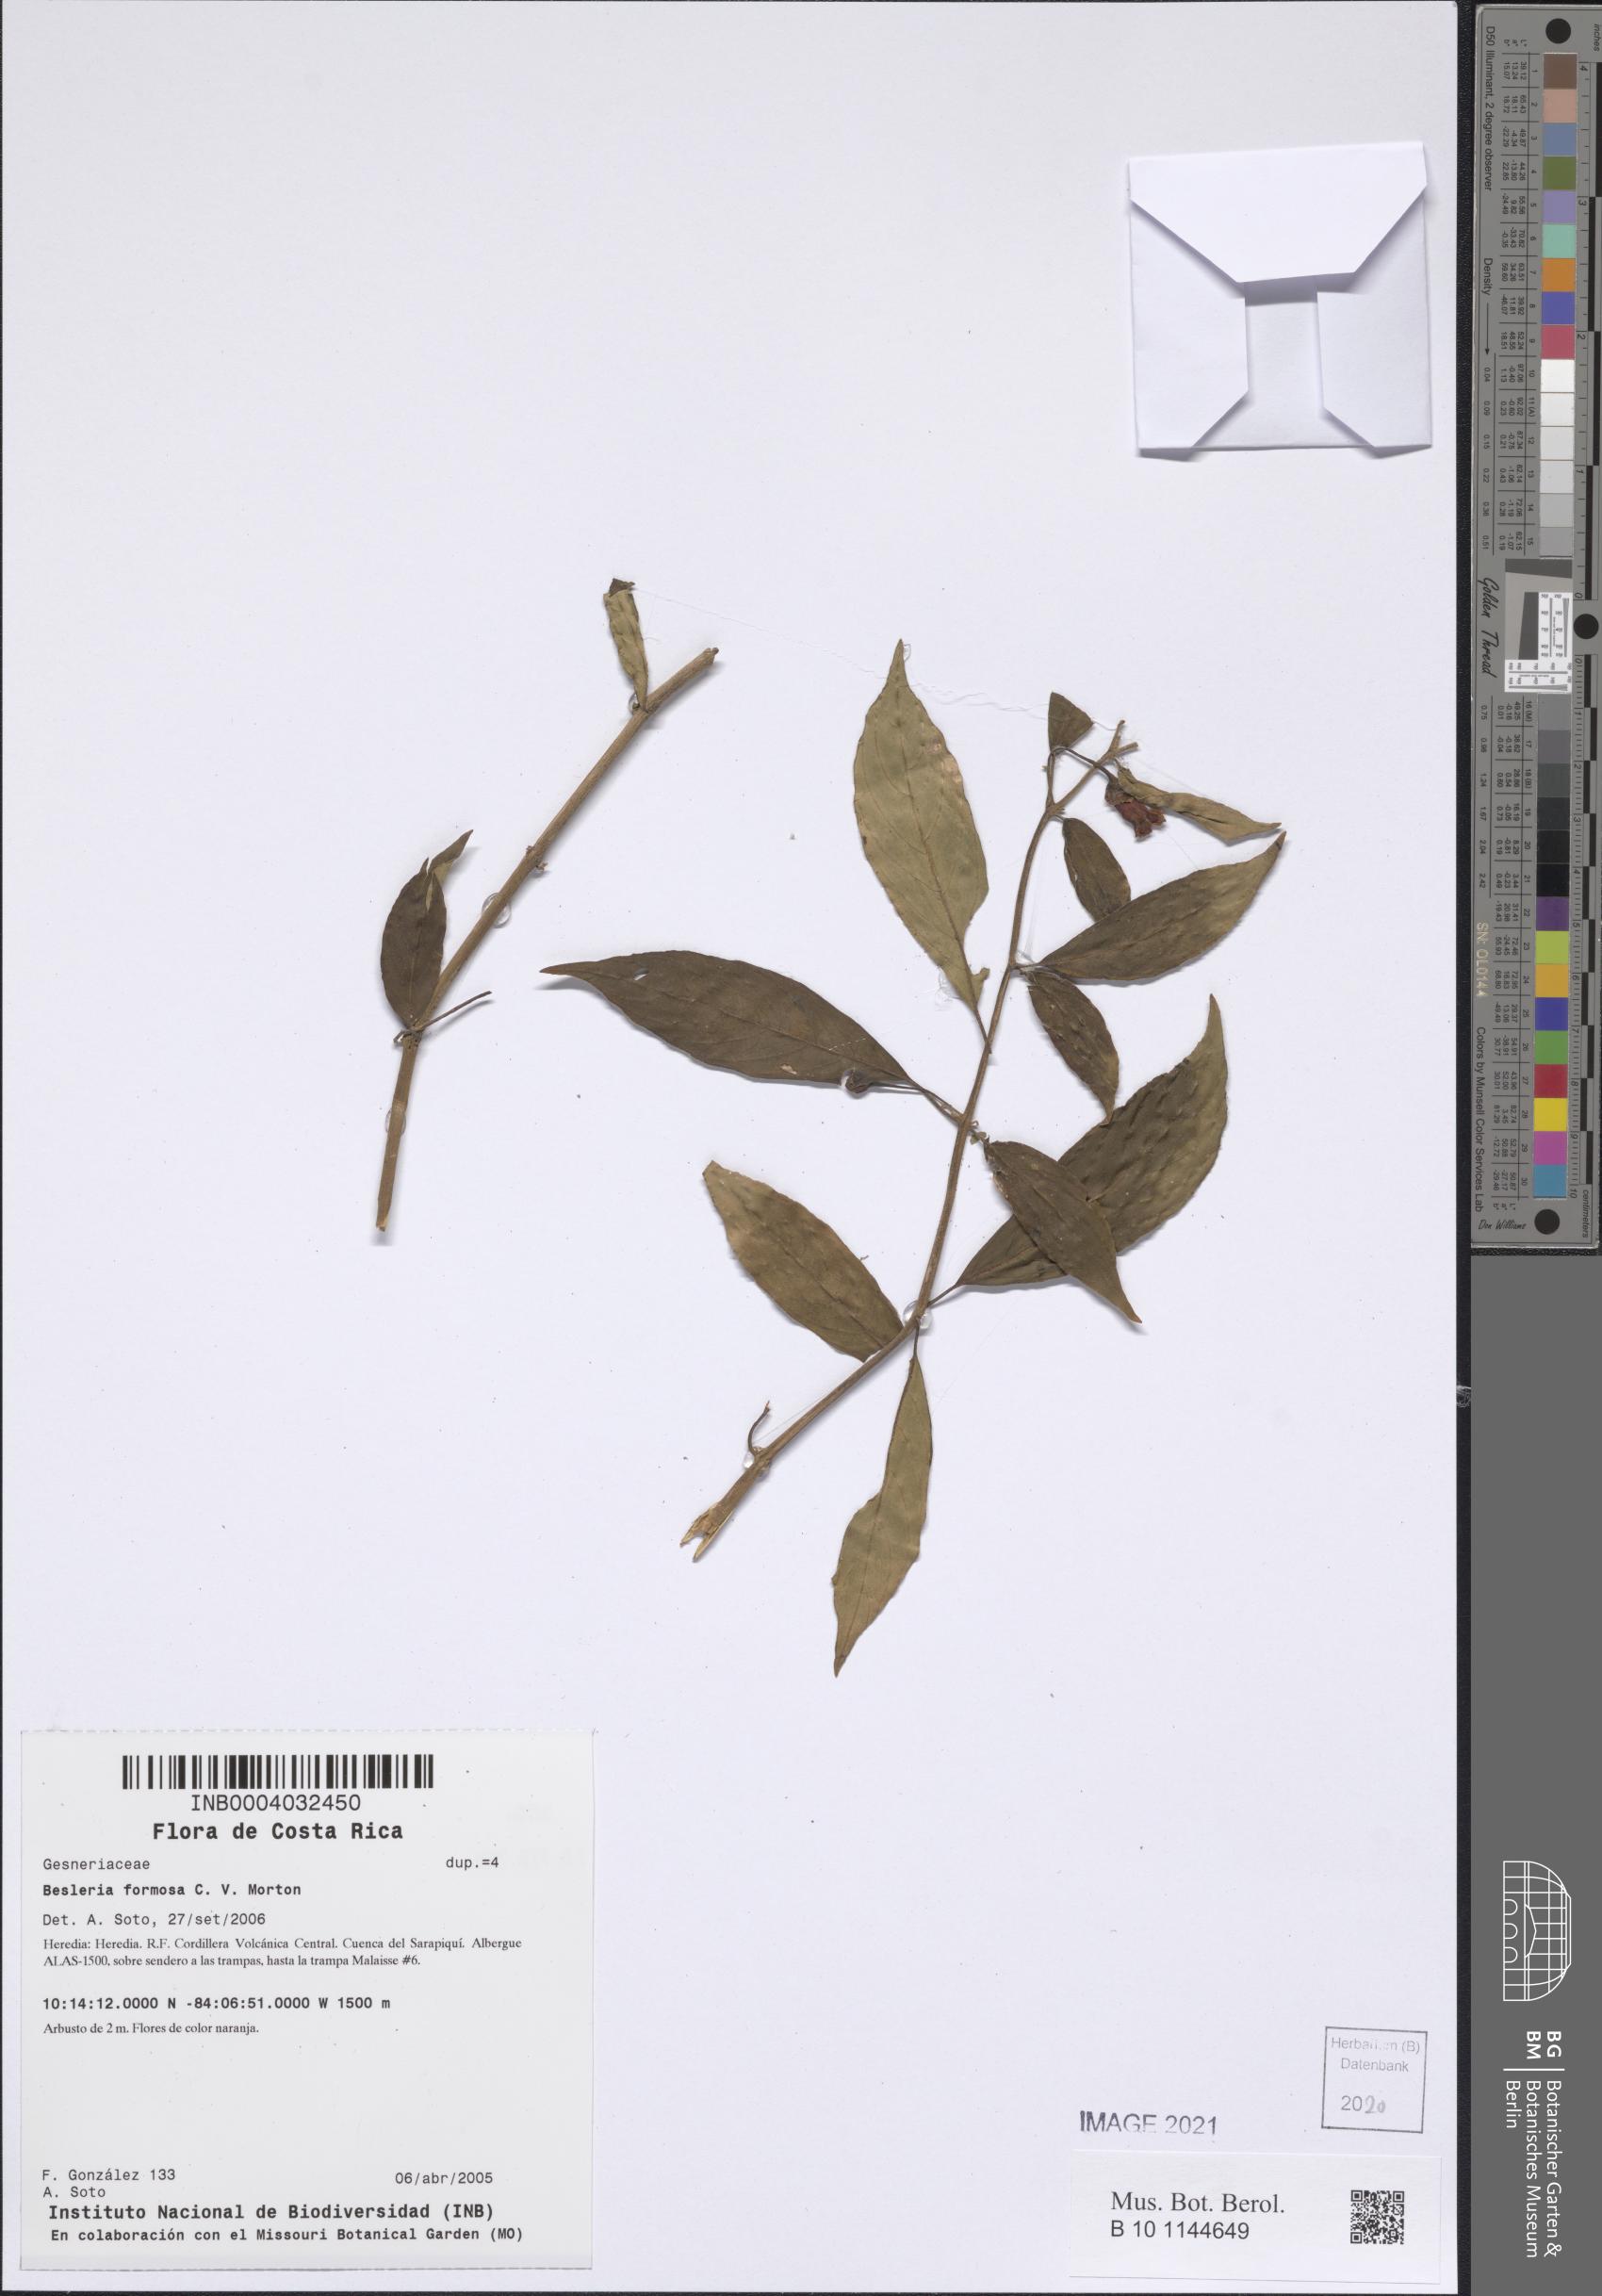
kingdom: Plantae
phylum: Tracheophyta
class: Magnoliopsida
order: Lamiales
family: Gesneriaceae
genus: Besleria
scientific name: Besleria amabilis
